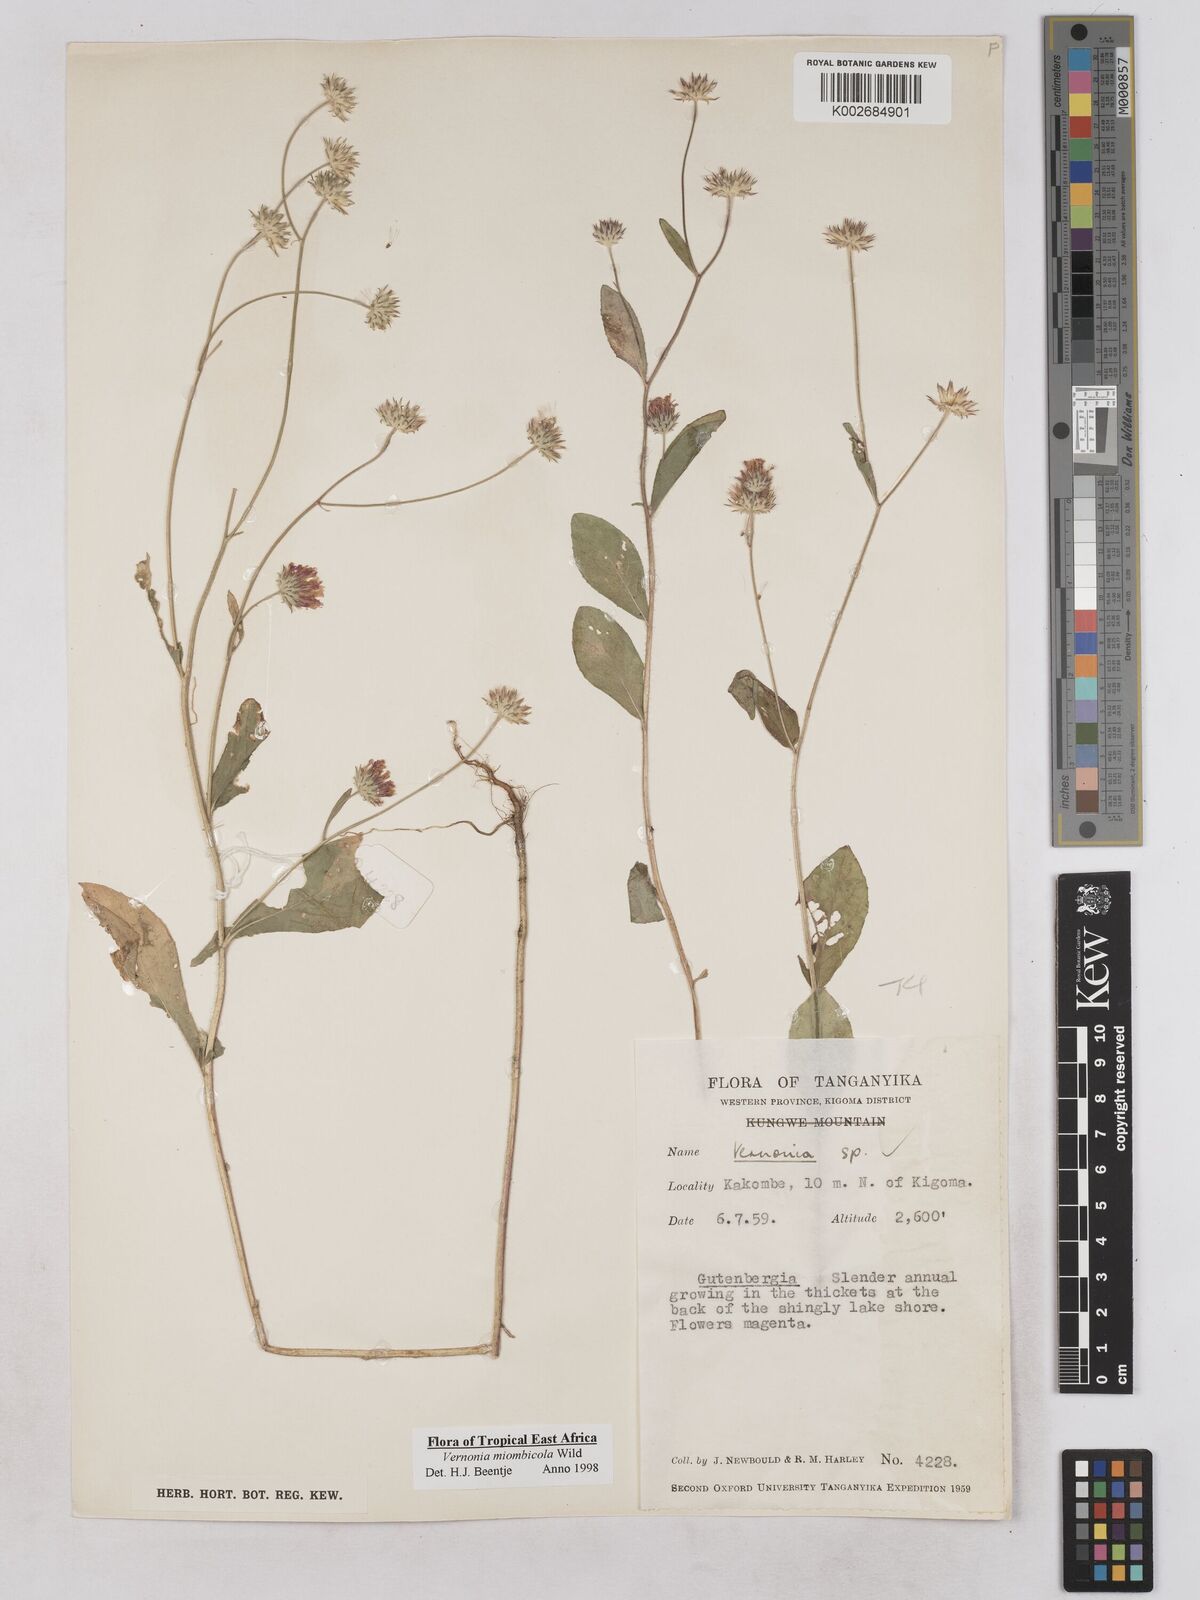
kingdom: Plantae
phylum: Tracheophyta
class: Magnoliopsida
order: Asterales
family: Asteraceae
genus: Vernonia
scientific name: Vernonia miombicola
